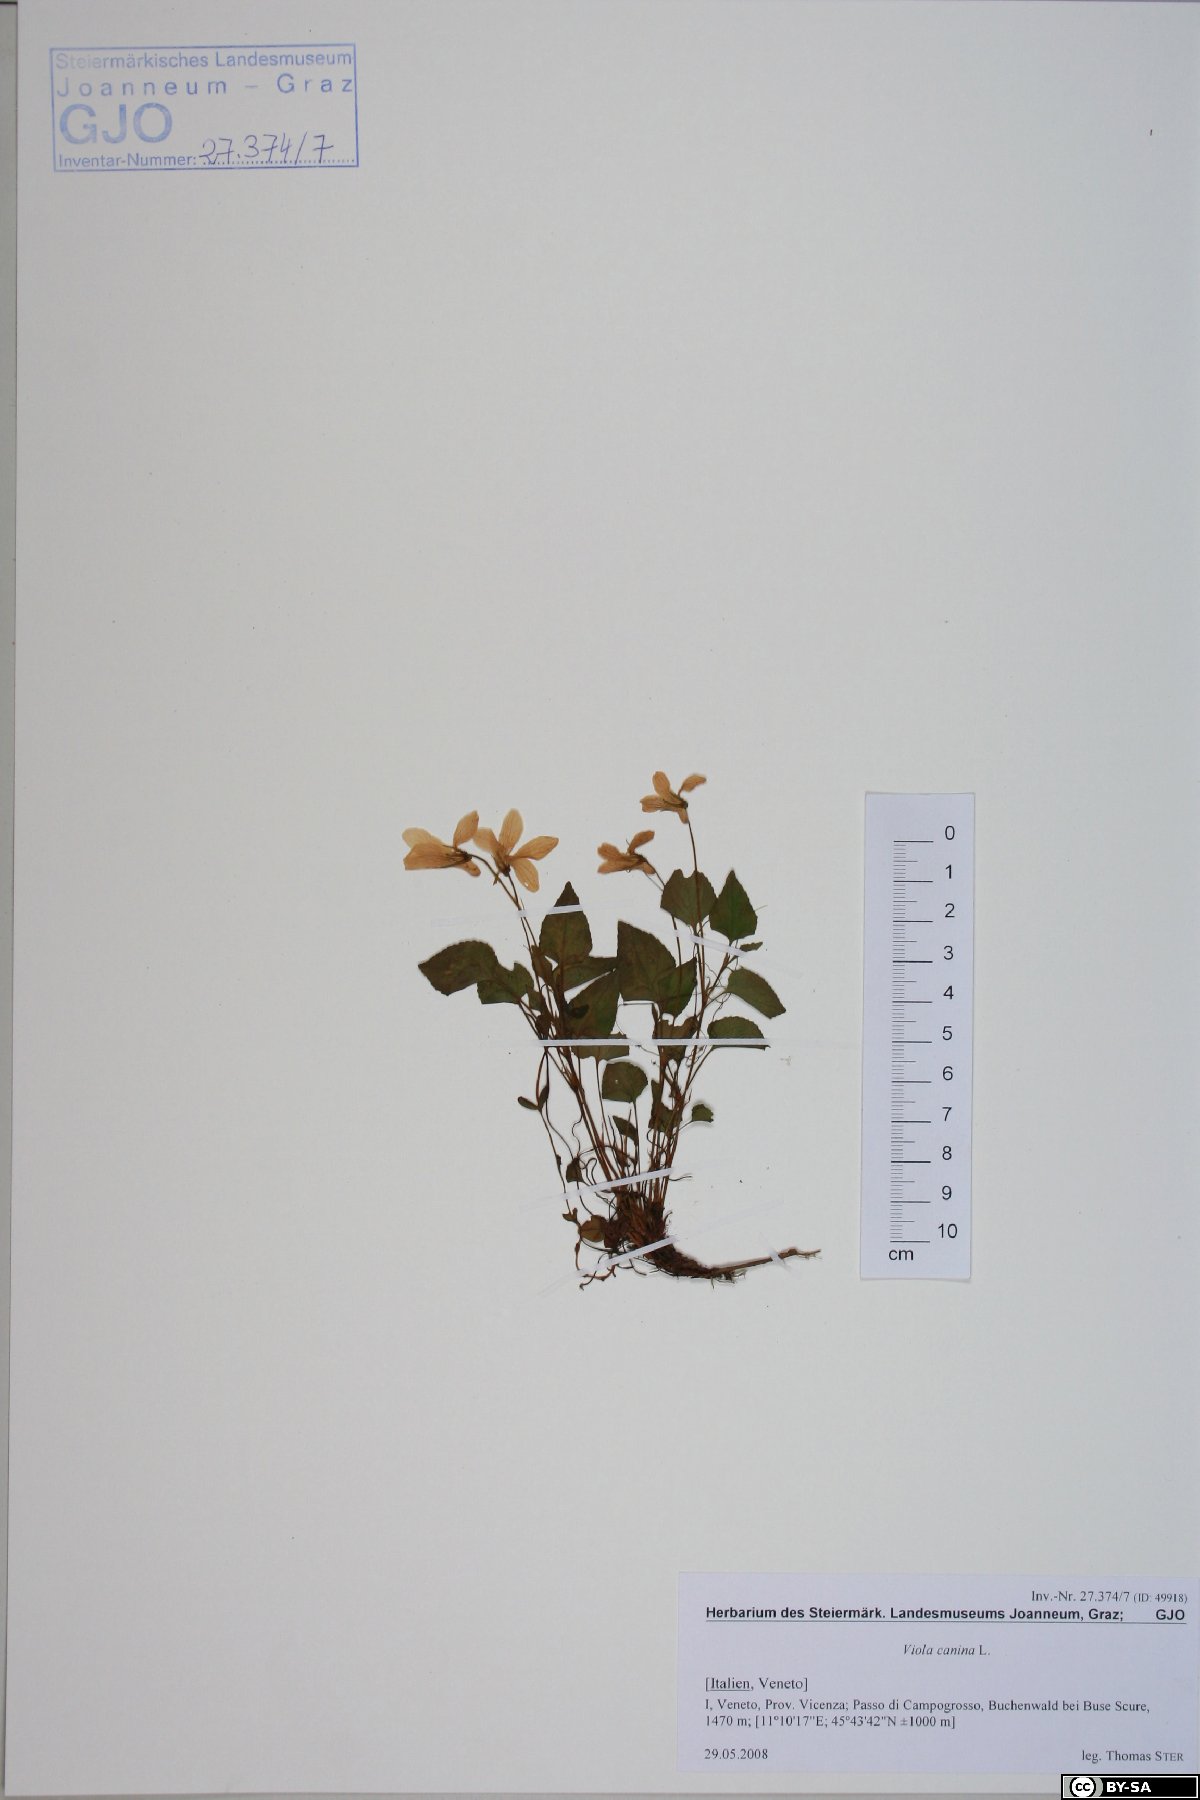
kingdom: Plantae
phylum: Tracheophyta
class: Magnoliopsida
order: Malpighiales
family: Violaceae
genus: Viola
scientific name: Viola canina
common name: Heath dog-violet
